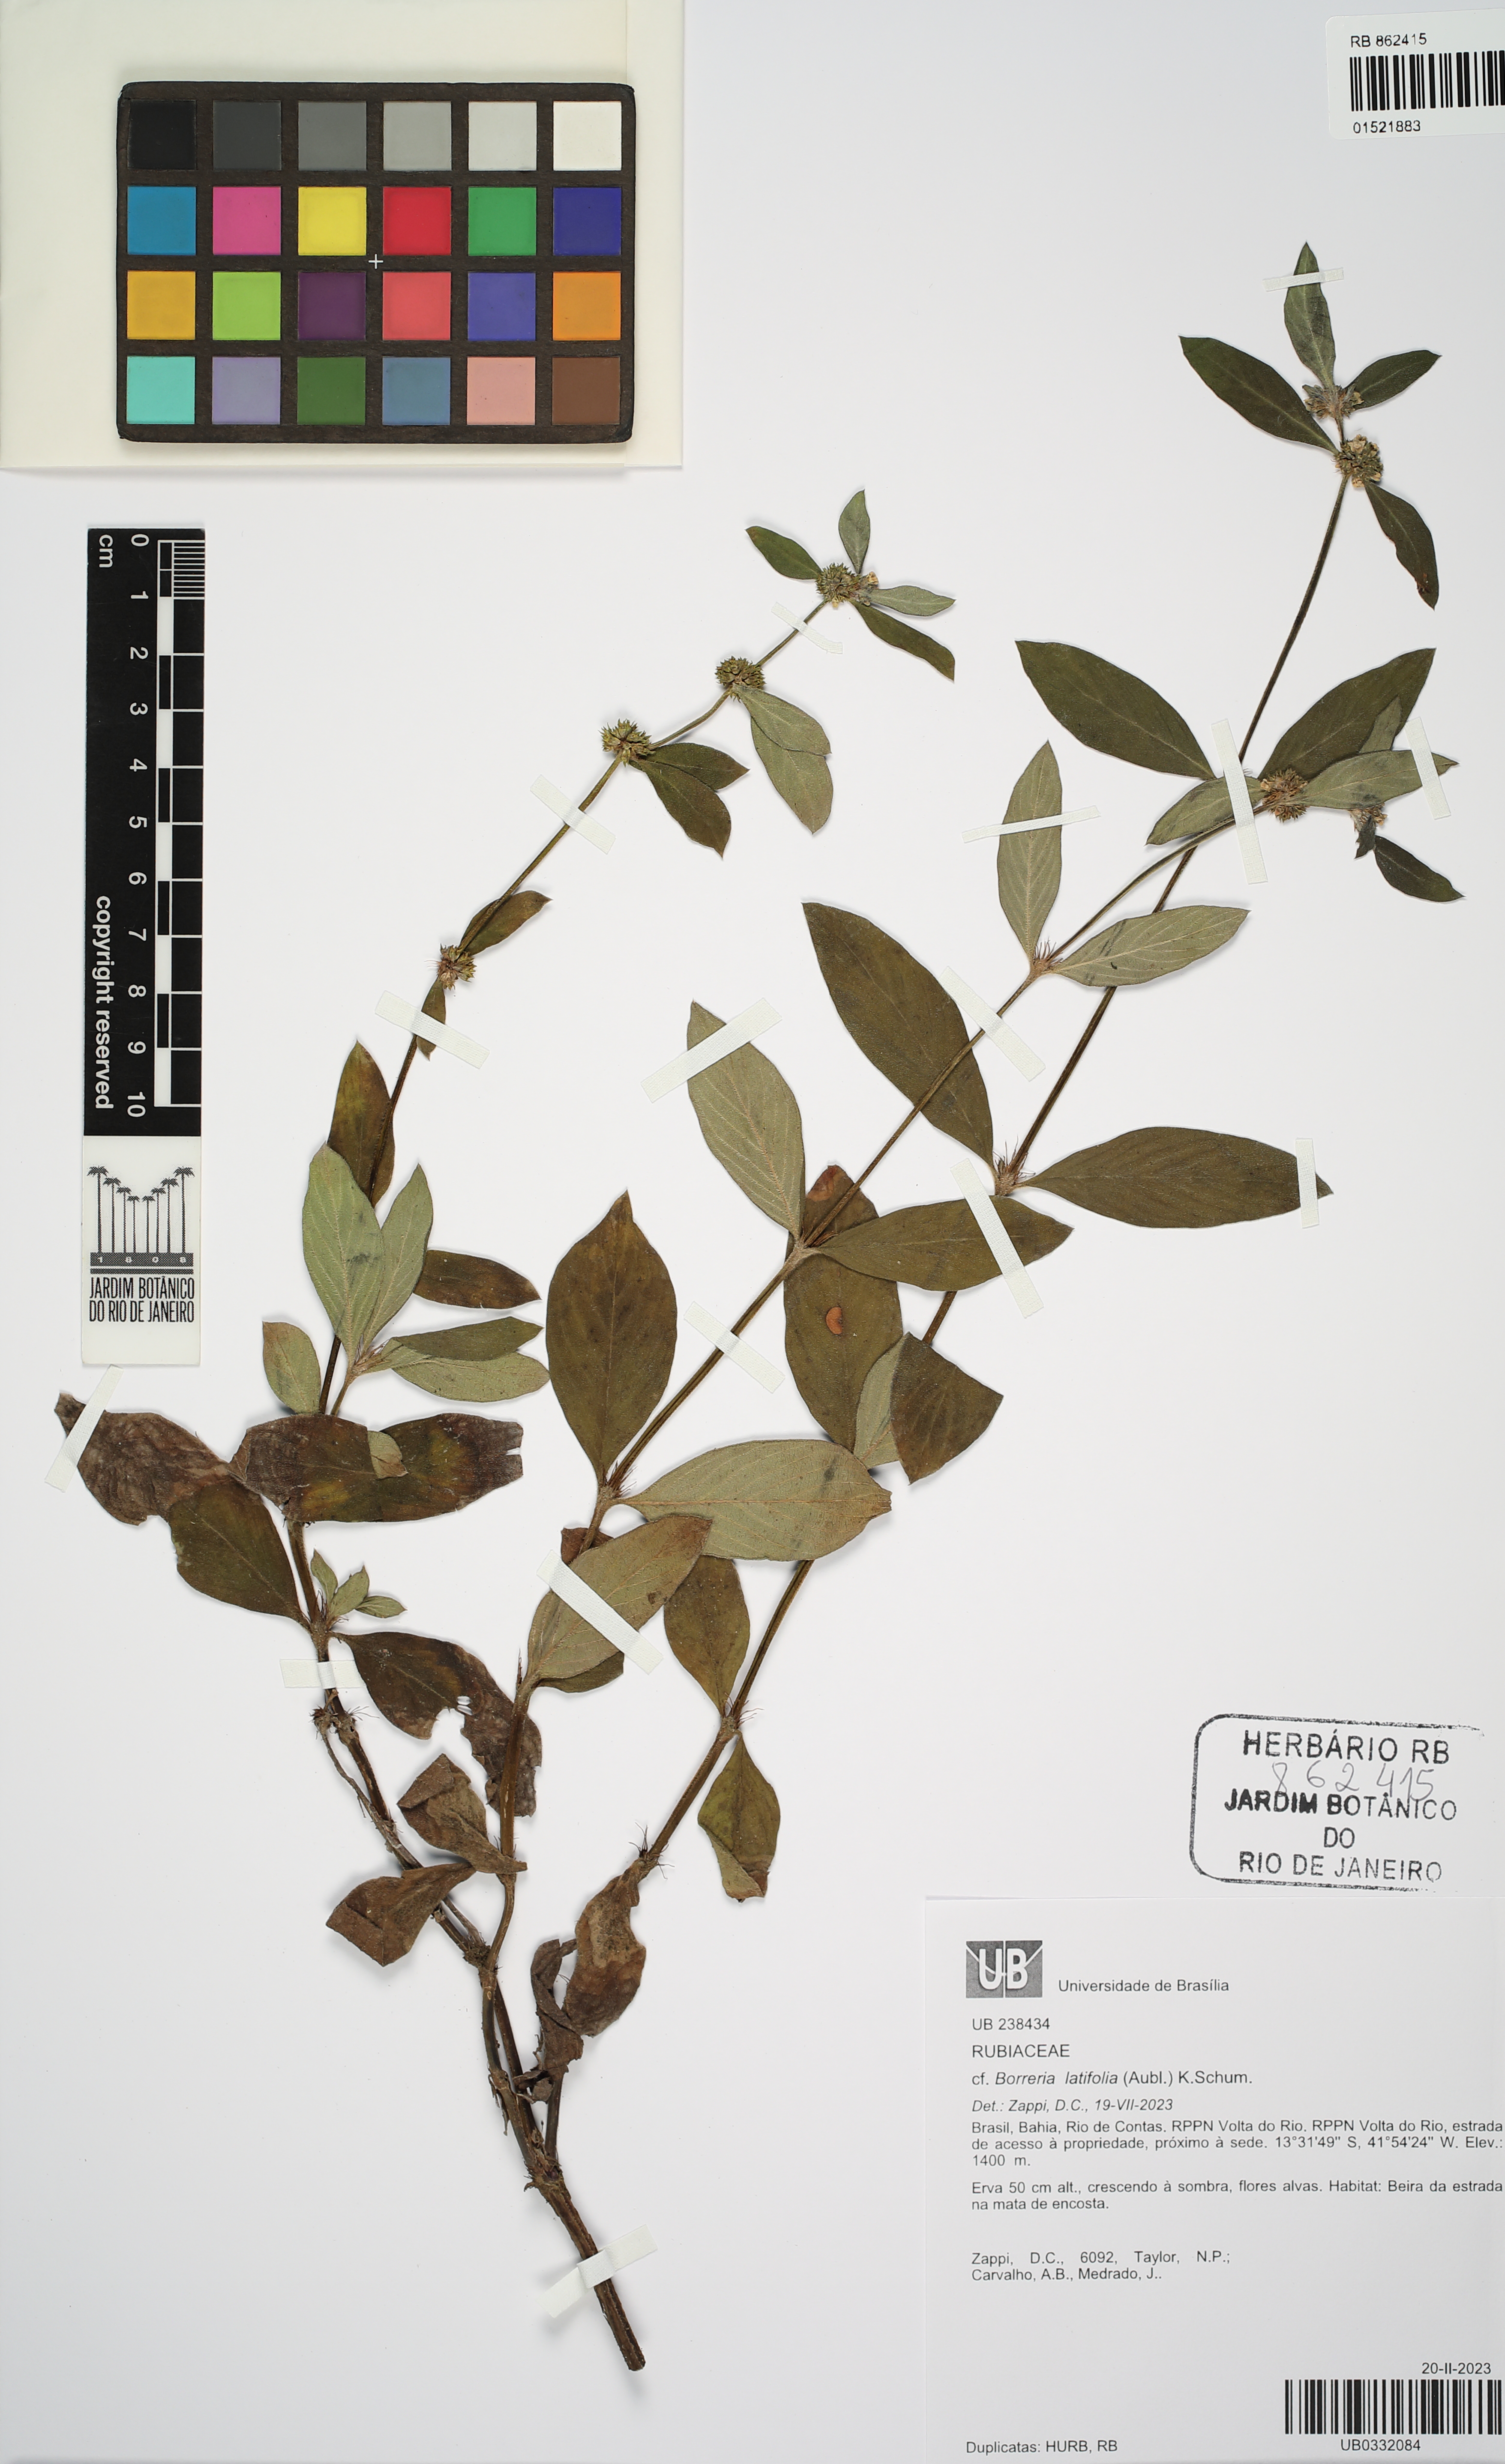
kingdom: Plantae
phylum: Tracheophyta
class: Magnoliopsida
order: Gentianales
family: Rubiaceae
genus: Spermacoce
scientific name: Spermacoce latifolia
